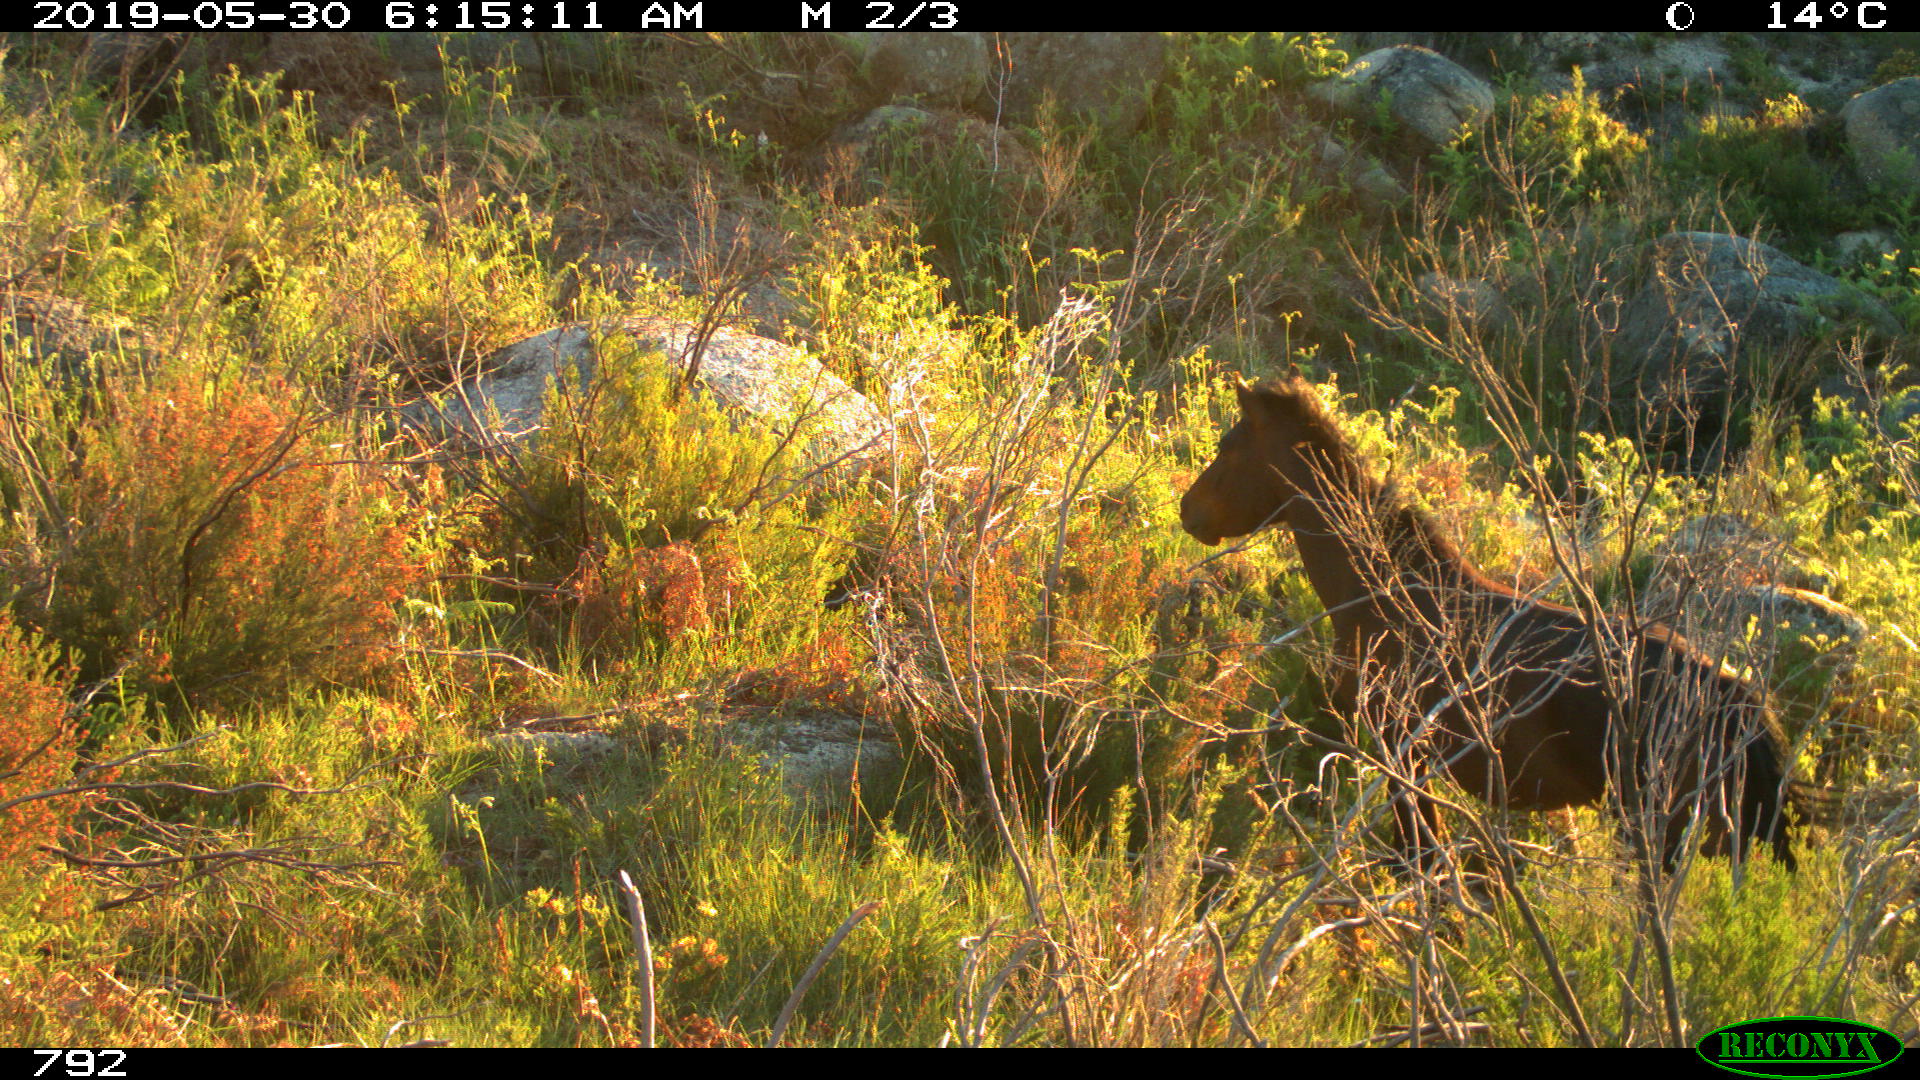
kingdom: Animalia
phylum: Chordata
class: Mammalia
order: Perissodactyla
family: Equidae
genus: Equus
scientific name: Equus caballus
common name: Horse
